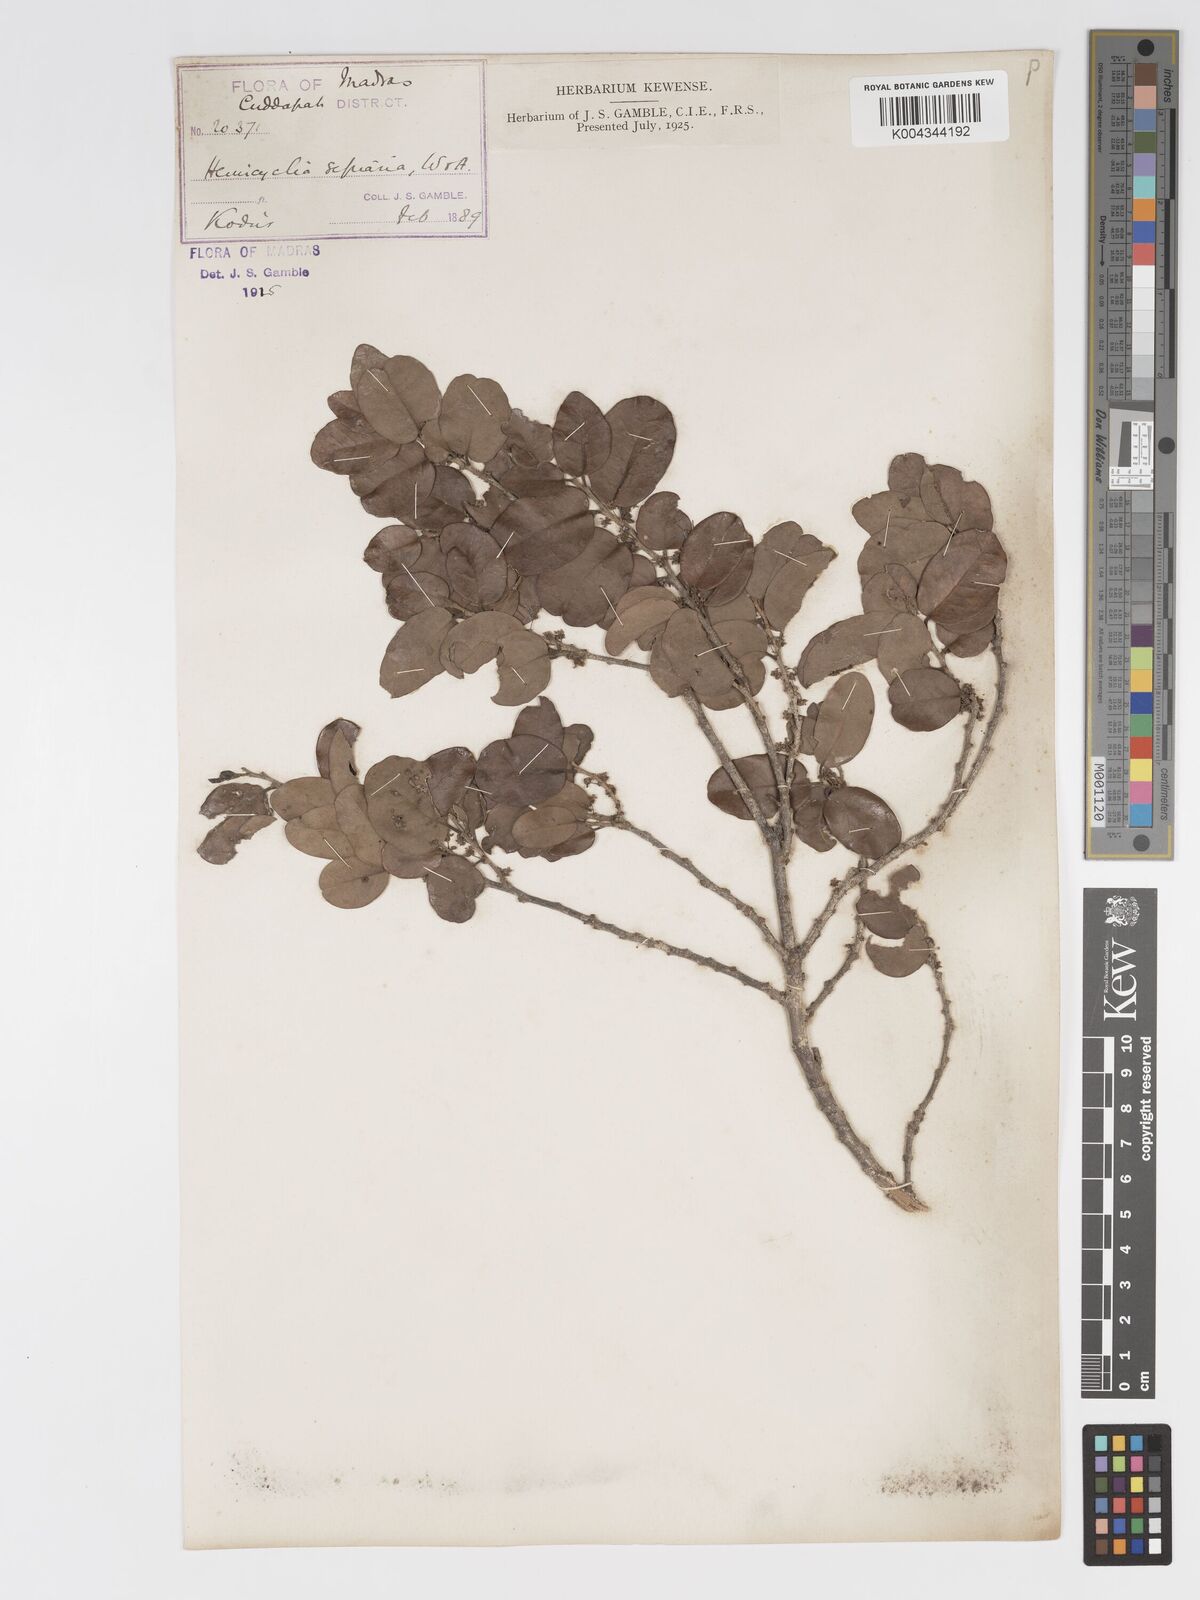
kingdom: Plantae
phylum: Tracheophyta
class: Magnoliopsida
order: Malpighiales
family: Putranjivaceae
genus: Drypetes
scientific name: Drypetes sepiaria
